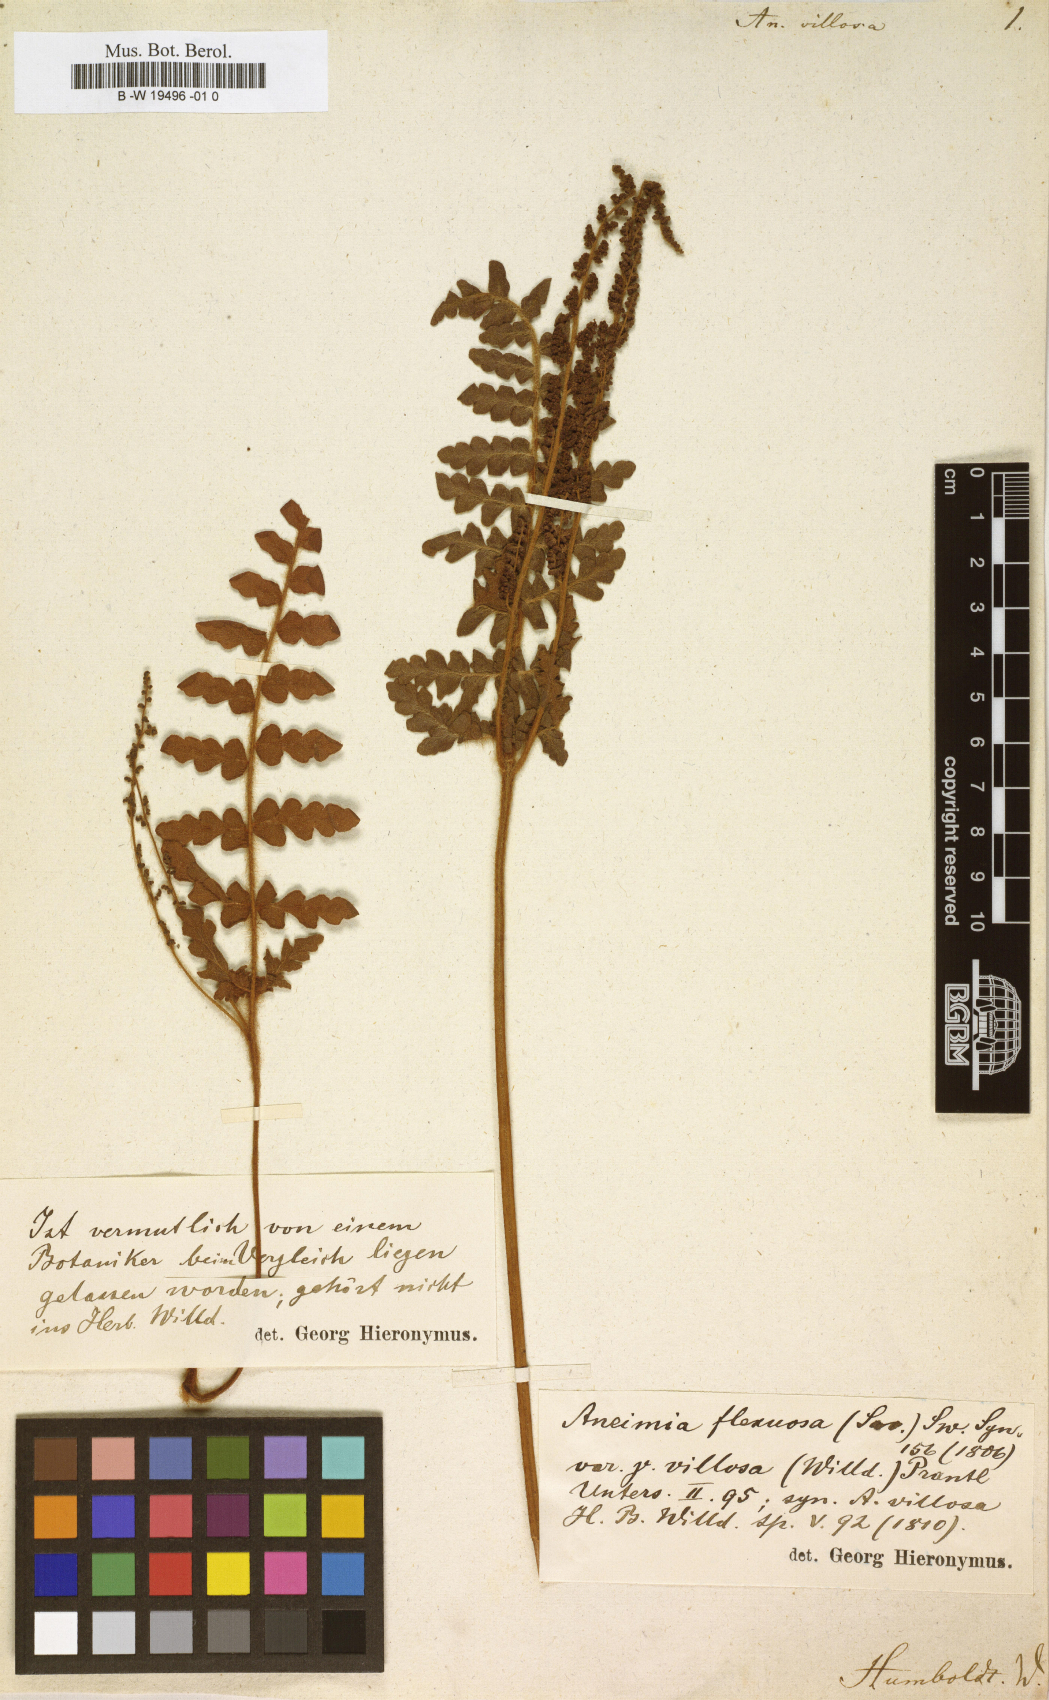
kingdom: Plantae
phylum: Tracheophyta
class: Polypodiopsida
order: Schizaeales
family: Anemiaceae
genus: Anemia
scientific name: Anemia villosa
